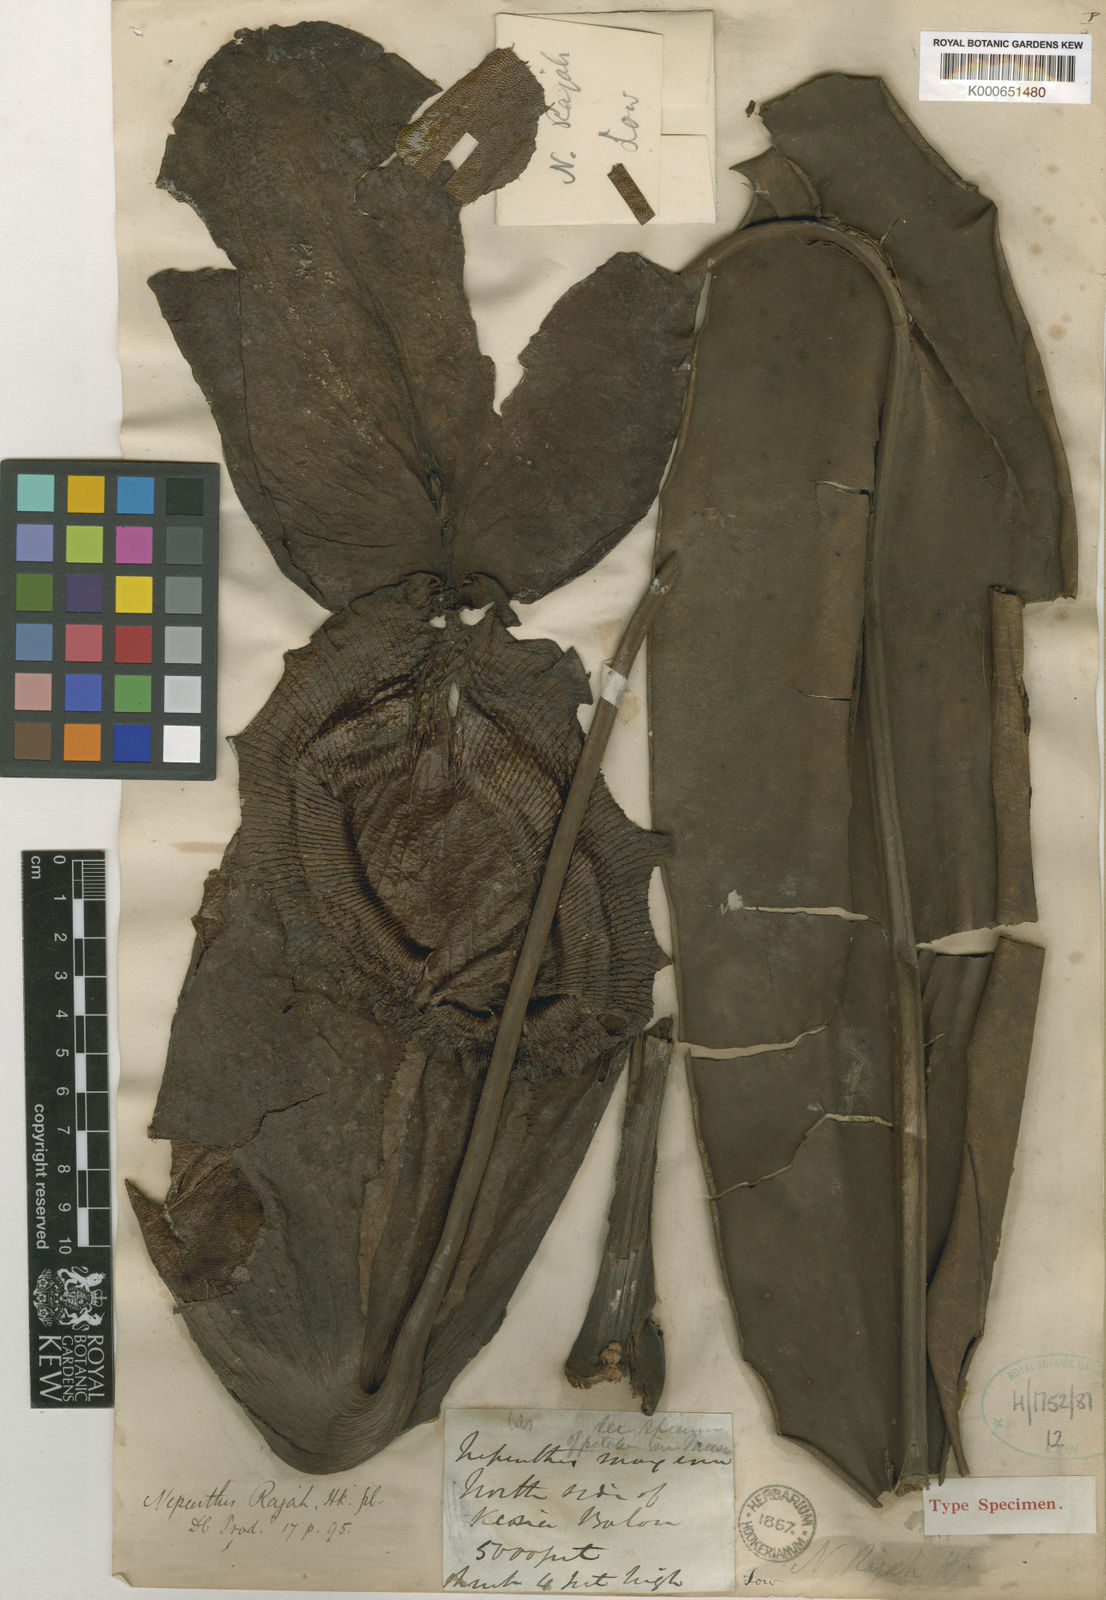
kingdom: Plantae
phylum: Tracheophyta
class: Magnoliopsida
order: Caryophyllales
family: Nepenthaceae
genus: Nepenthes
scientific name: Nepenthes rajah
